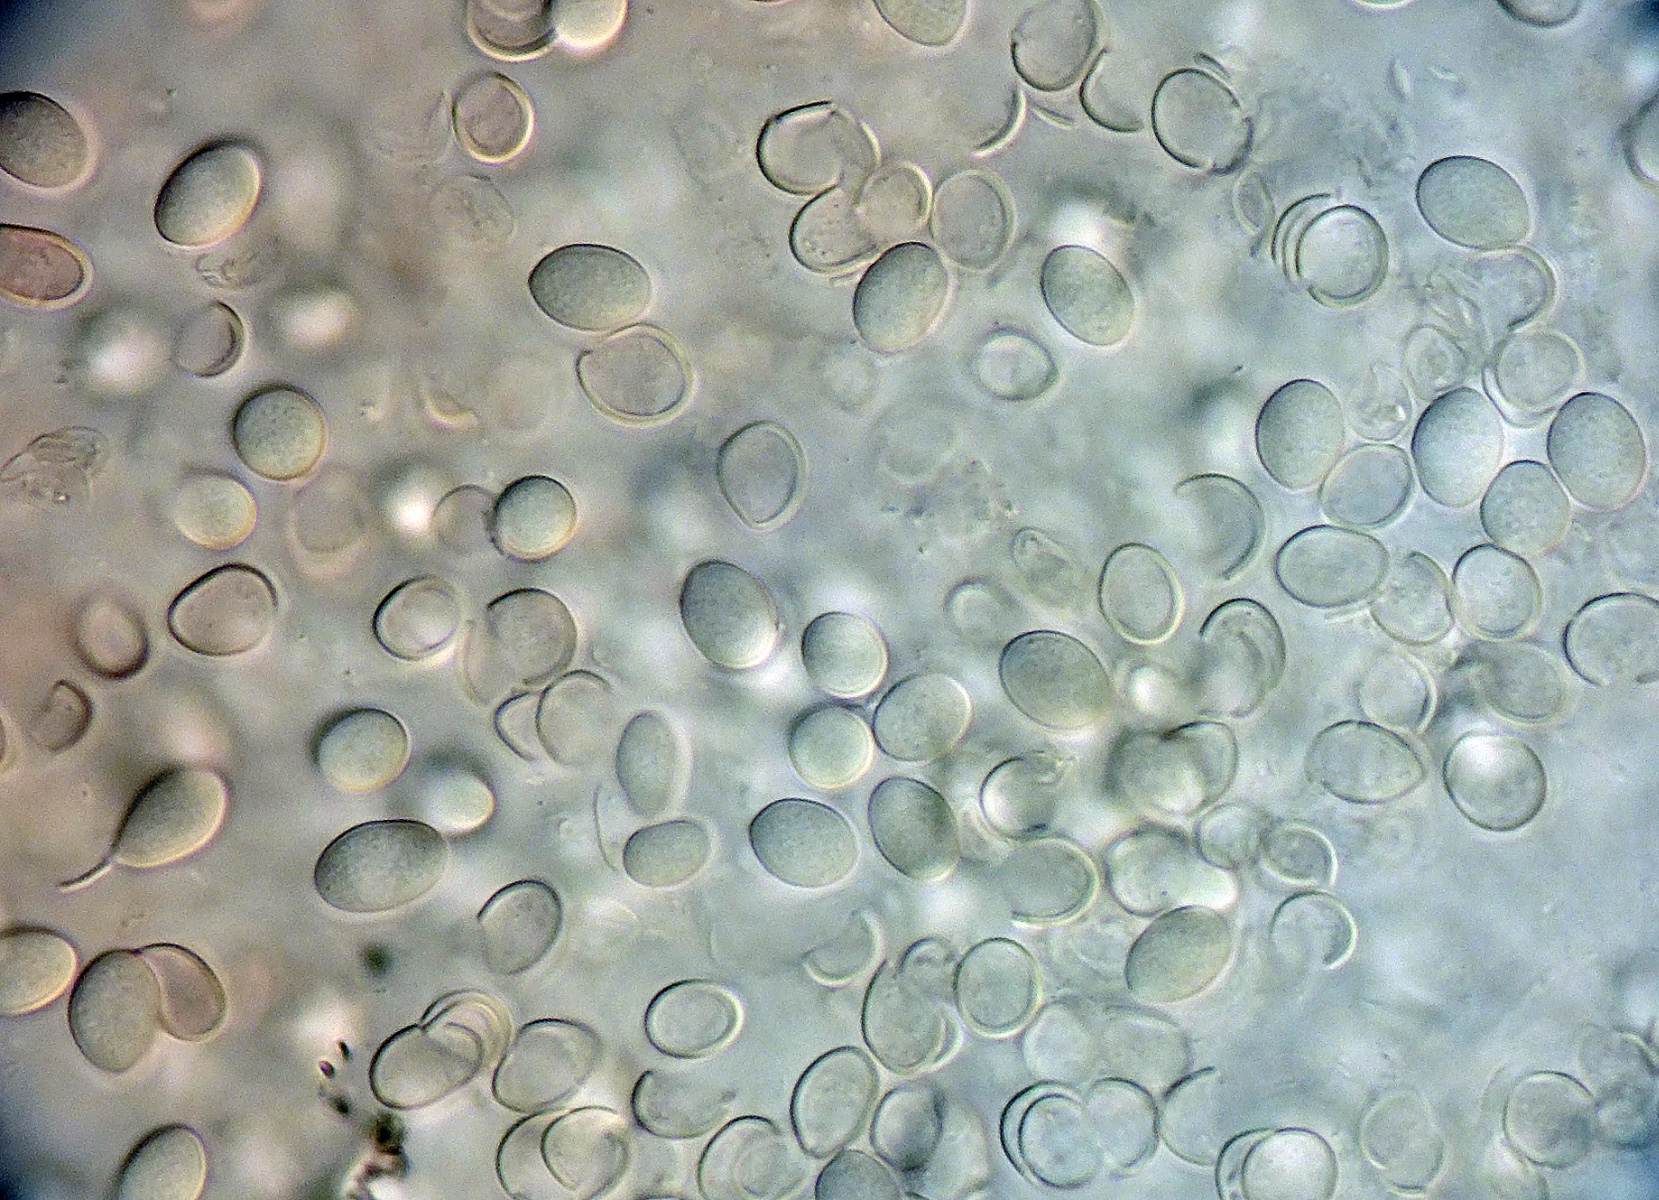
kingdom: Fungi
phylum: Basidiomycota
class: Agaricomycetes
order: Agaricales
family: Agaricaceae
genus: Cyathus
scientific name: Cyathus olla
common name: klokke-redesvamp
